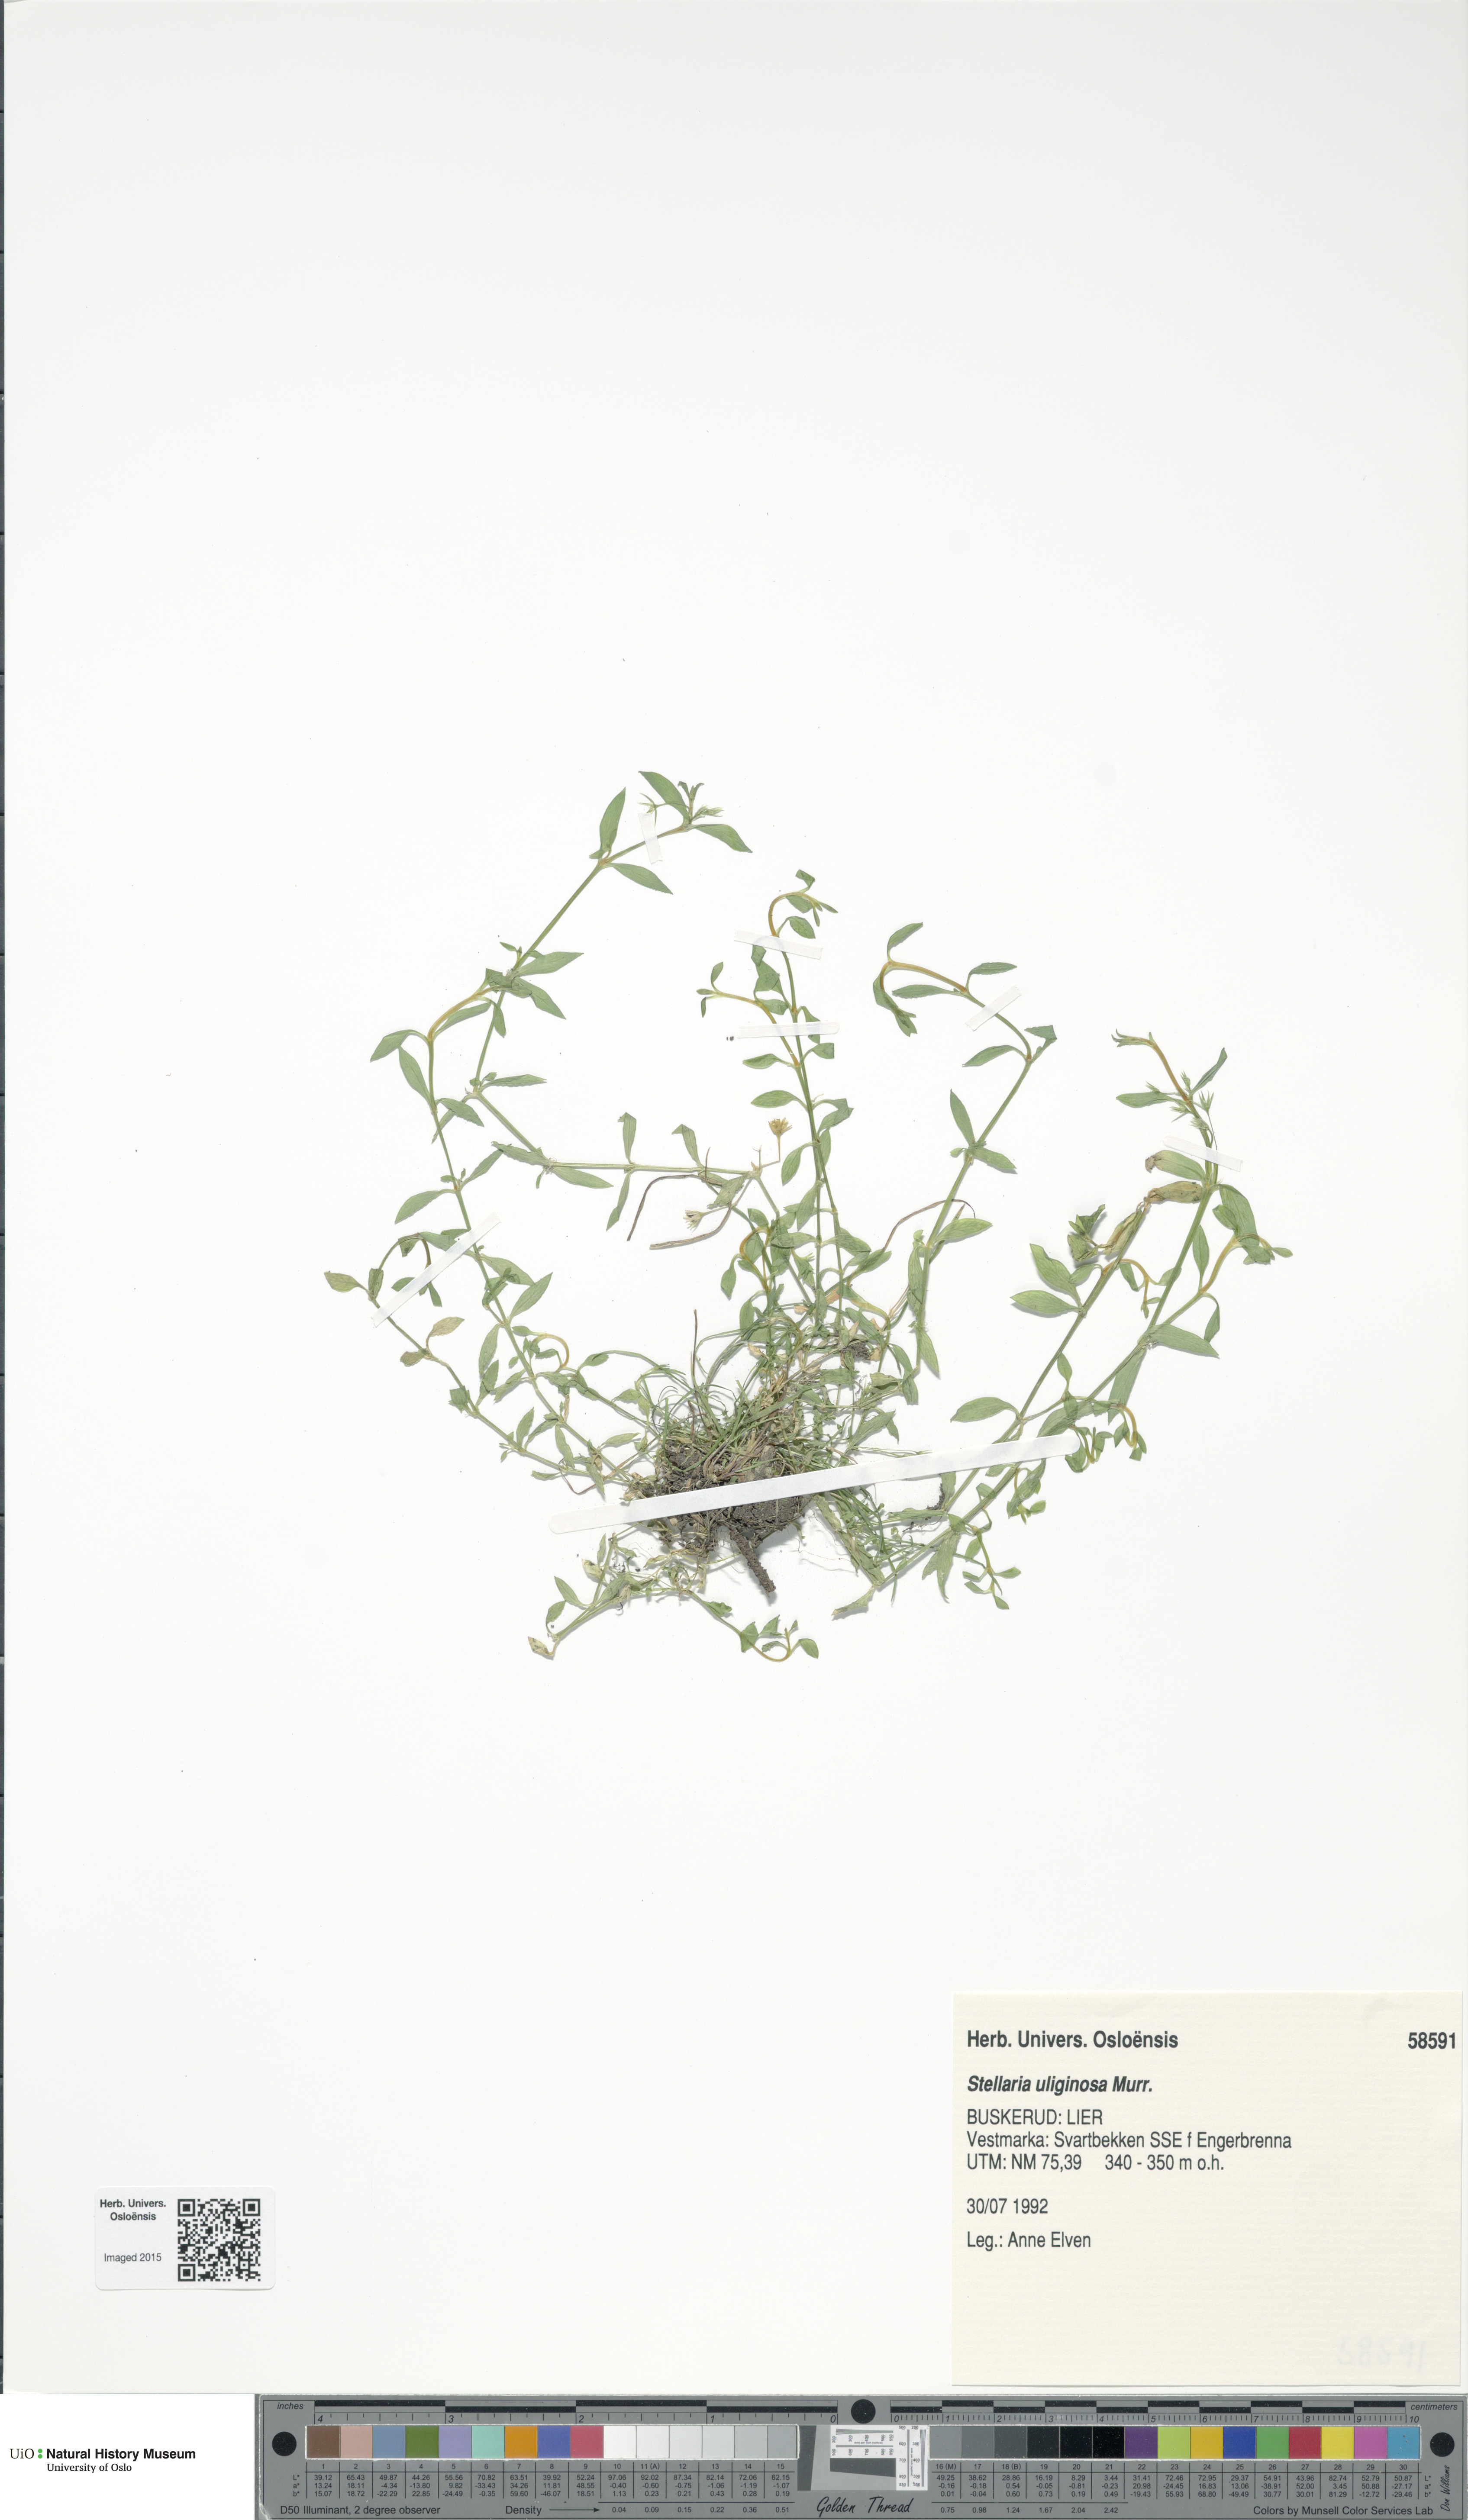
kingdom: Plantae
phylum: Tracheophyta
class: Magnoliopsida
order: Caryophyllales
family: Caryophyllaceae
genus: Stellaria
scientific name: Stellaria alsine
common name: Bog stitchwort
